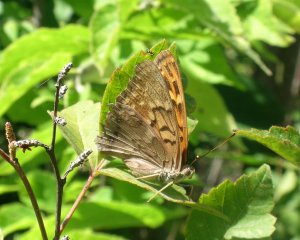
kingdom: Animalia
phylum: Arthropoda
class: Insecta
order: Lepidoptera
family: Nymphalidae
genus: Asterocampa
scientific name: Asterocampa clyton
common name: Tawny Emperor
